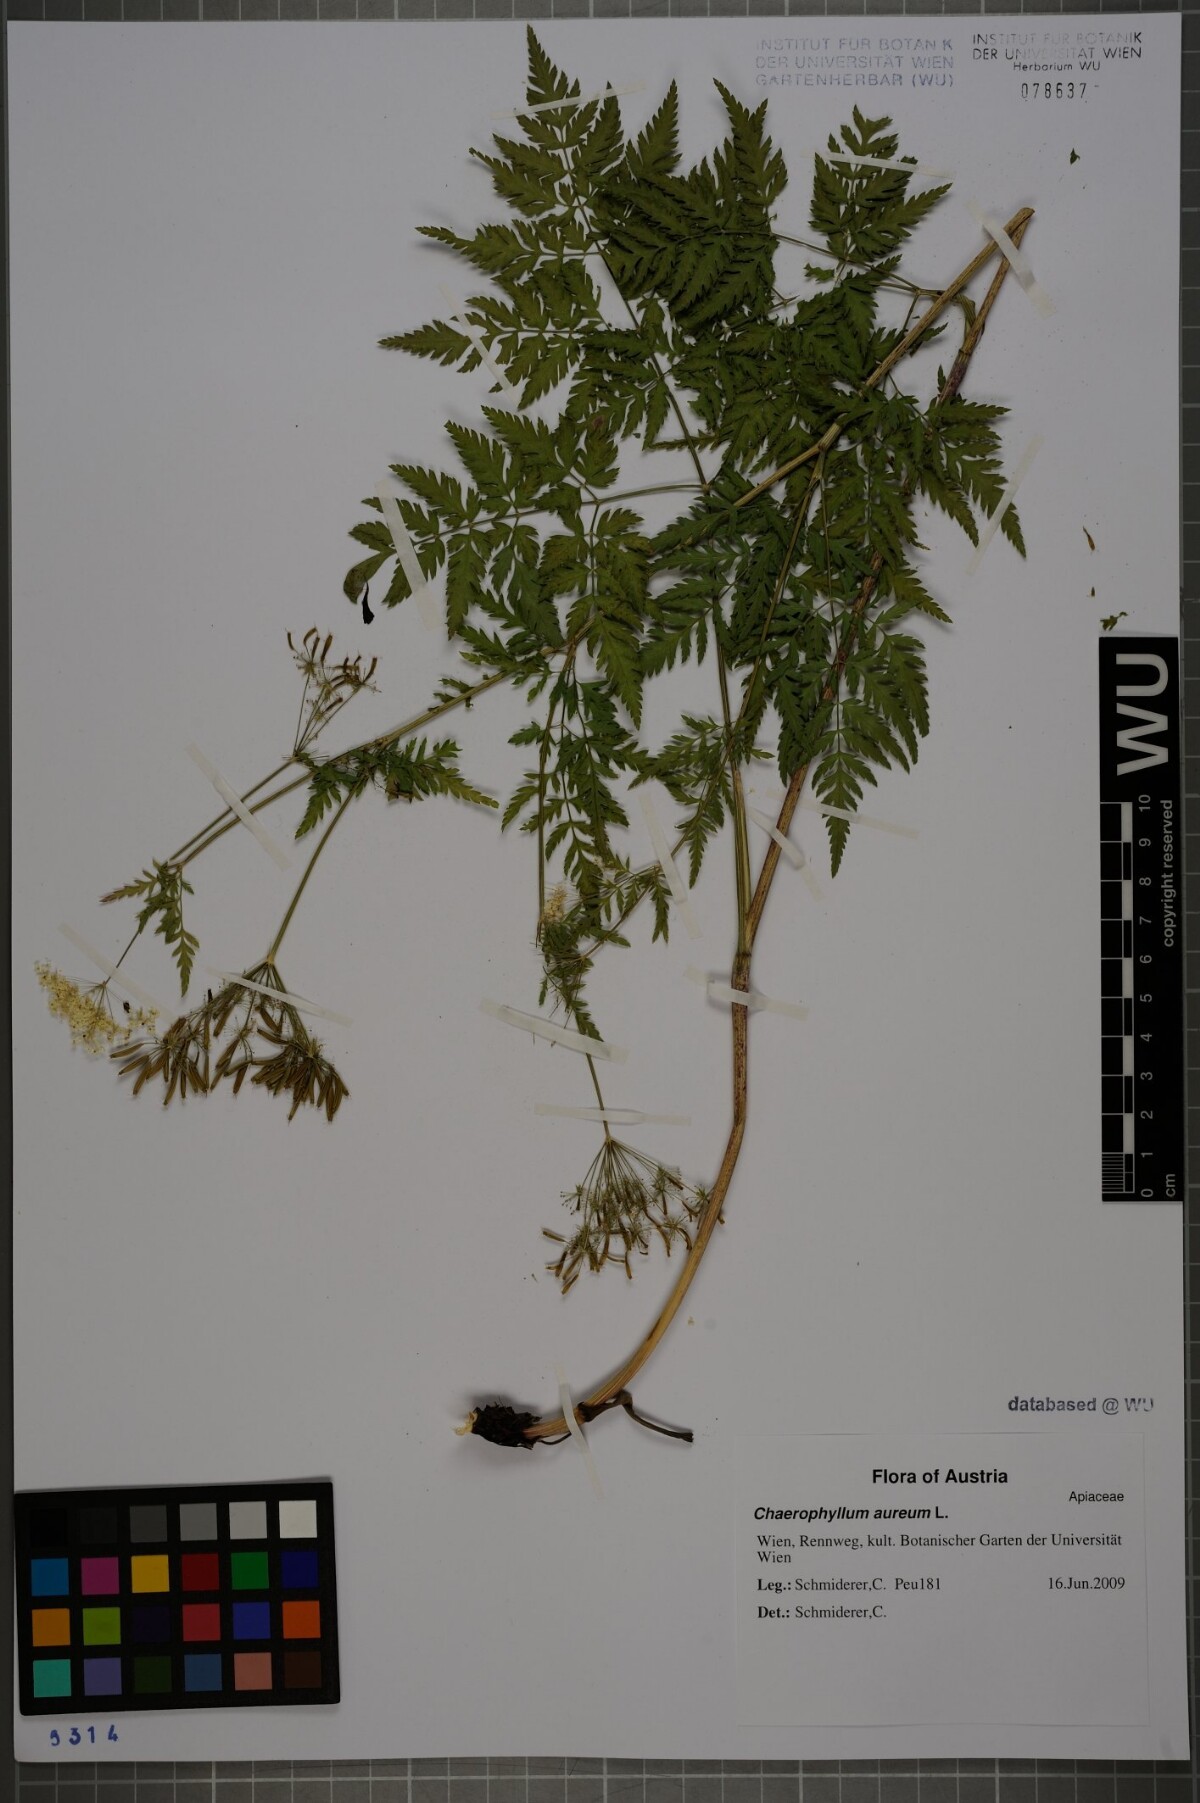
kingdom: Plantae
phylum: Tracheophyta
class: Magnoliopsida
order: Apiales
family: Apiaceae
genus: Chaerophyllum
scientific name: Chaerophyllum aureum
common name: Golden chervil
